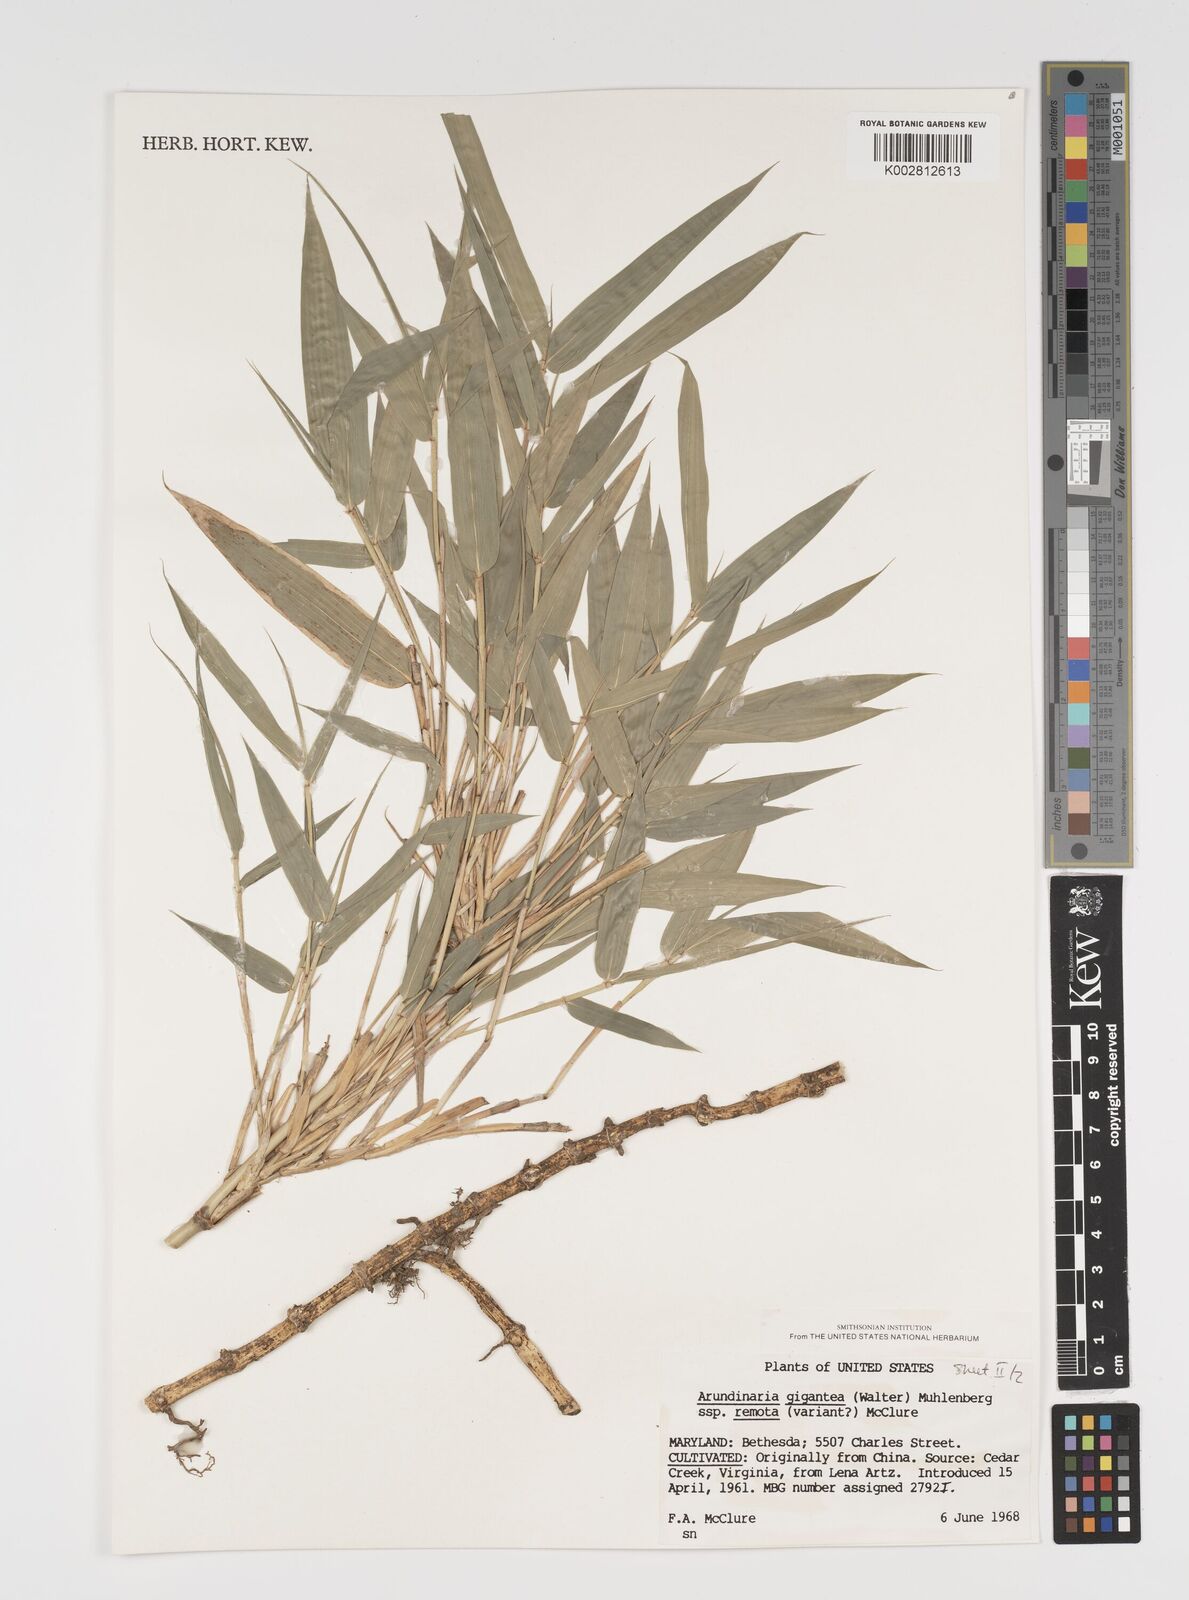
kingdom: Plantae
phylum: Tracheophyta
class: Liliopsida
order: Poales
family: Poaceae
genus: Arundinaria
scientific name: Arundinaria
